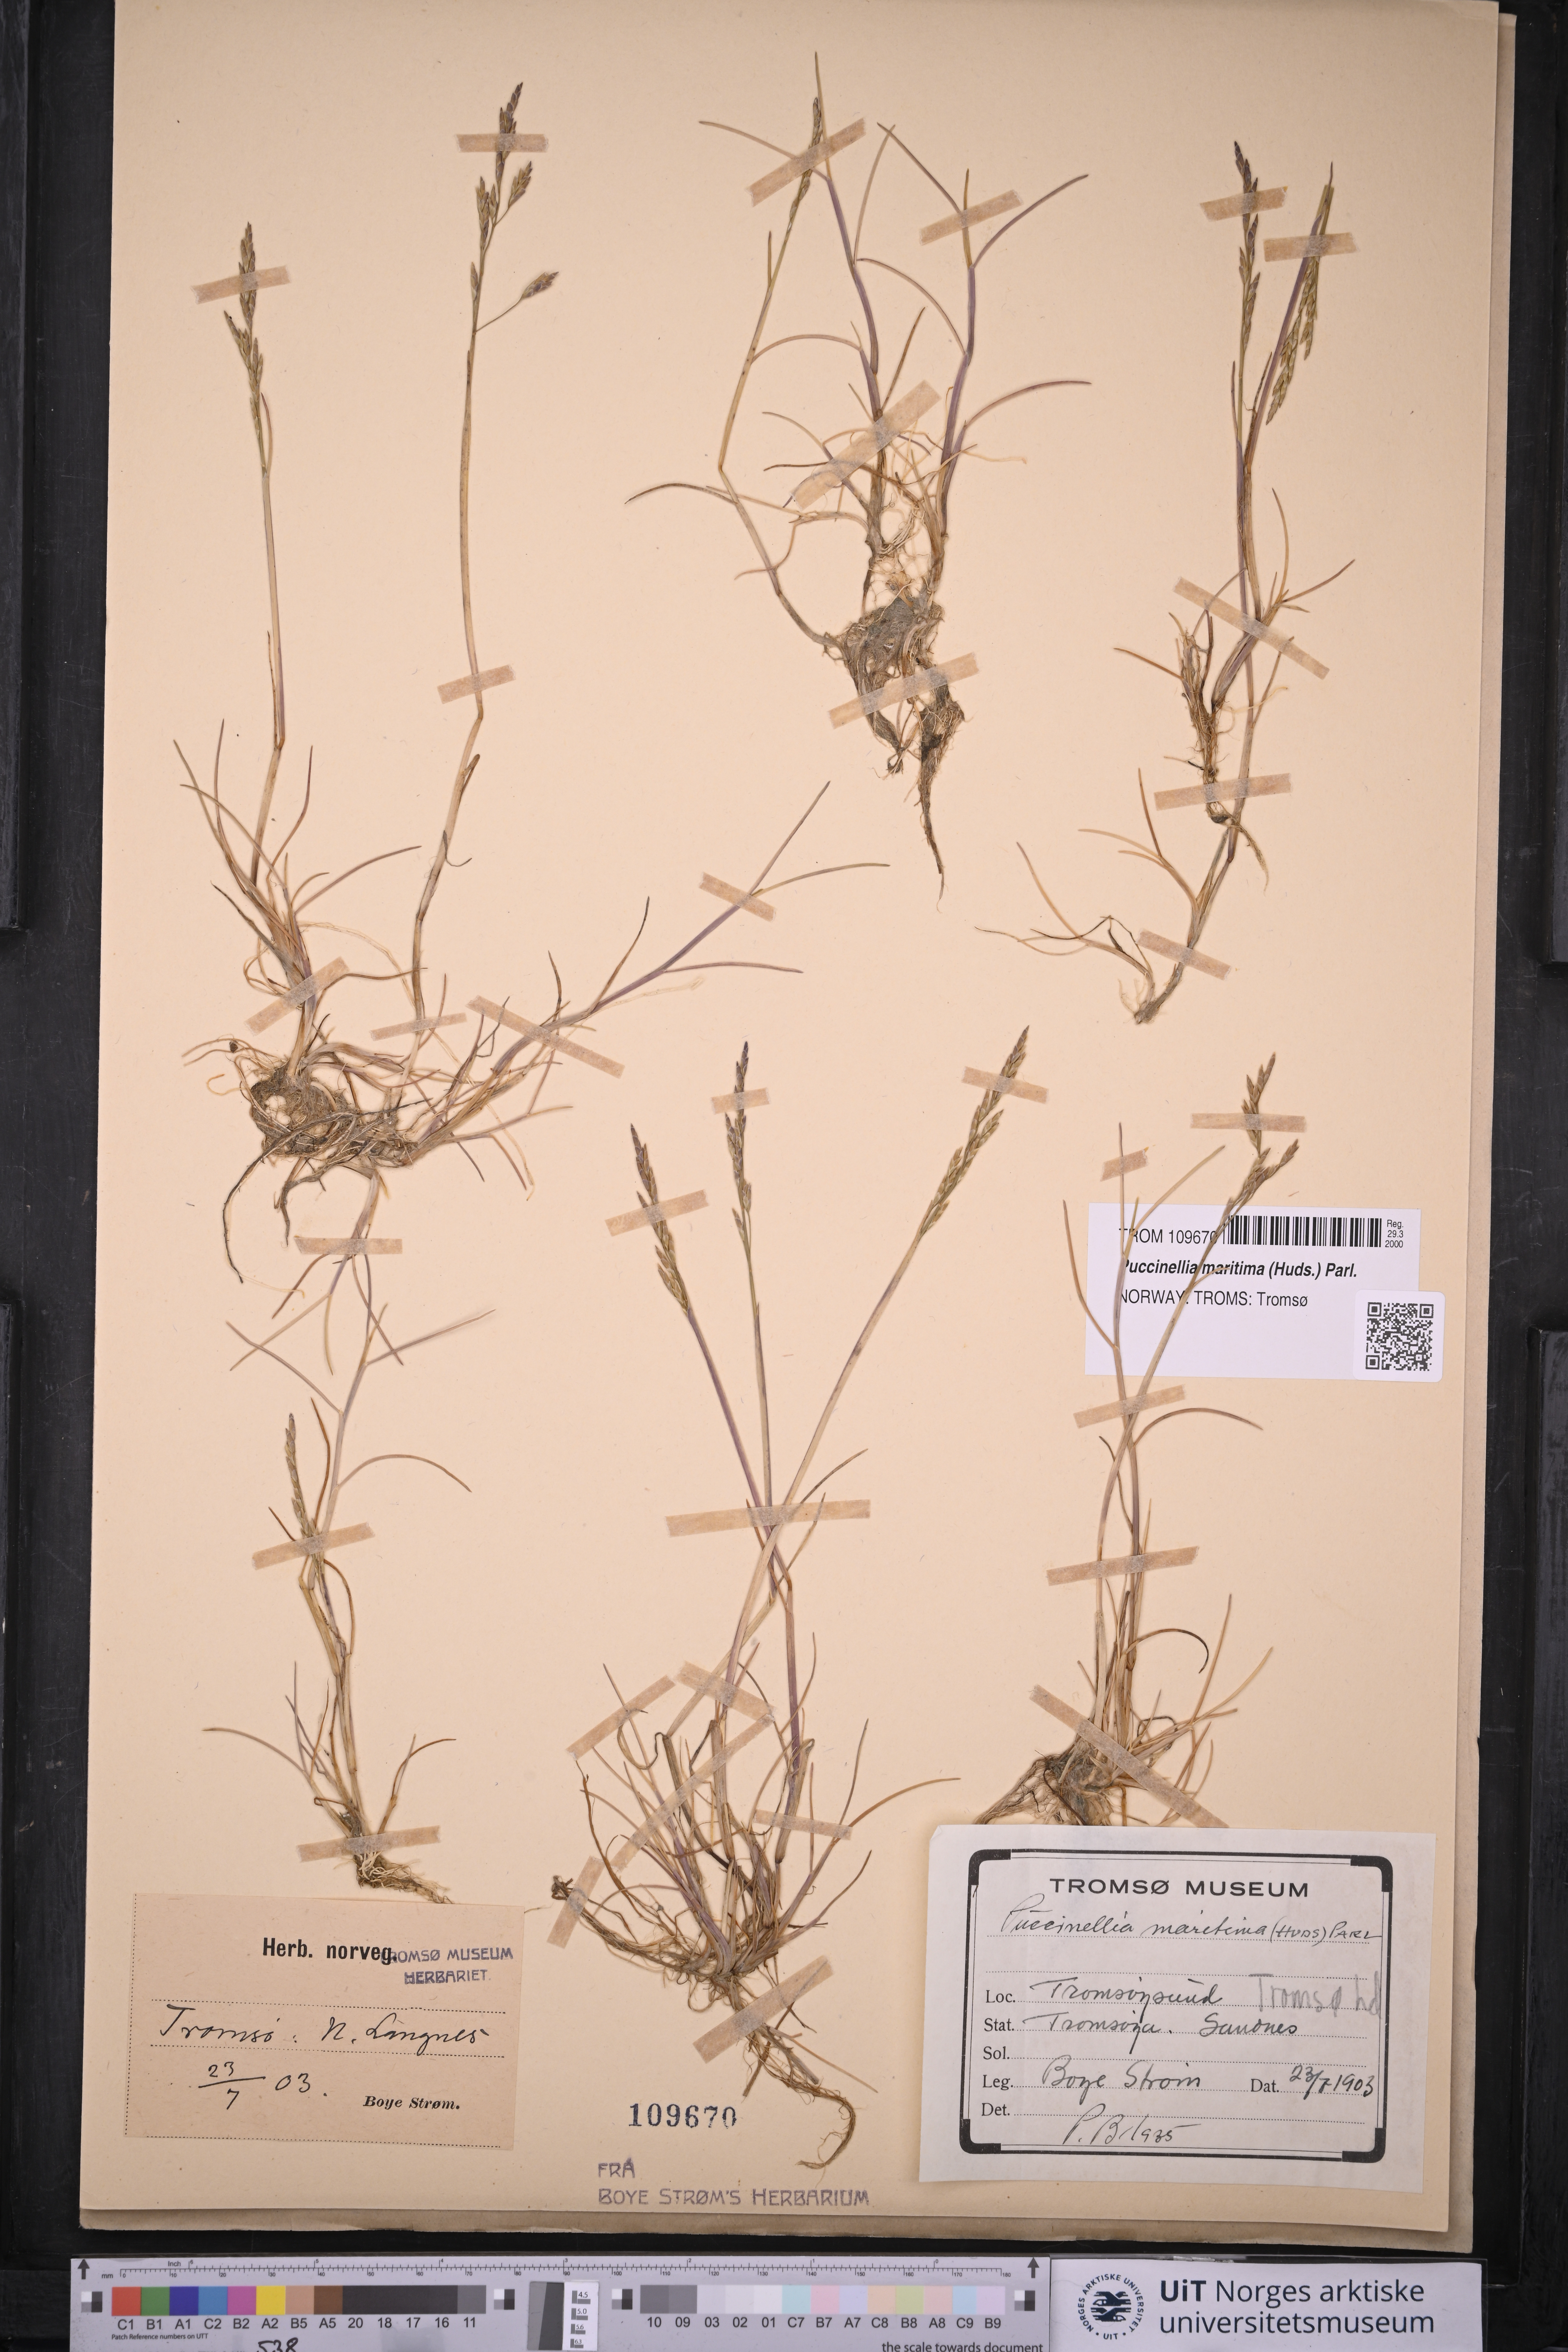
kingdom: Plantae
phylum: Tracheophyta
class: Liliopsida
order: Poales
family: Poaceae
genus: Puccinellia
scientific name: Puccinellia maritima
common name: Common saltmarsh grass
